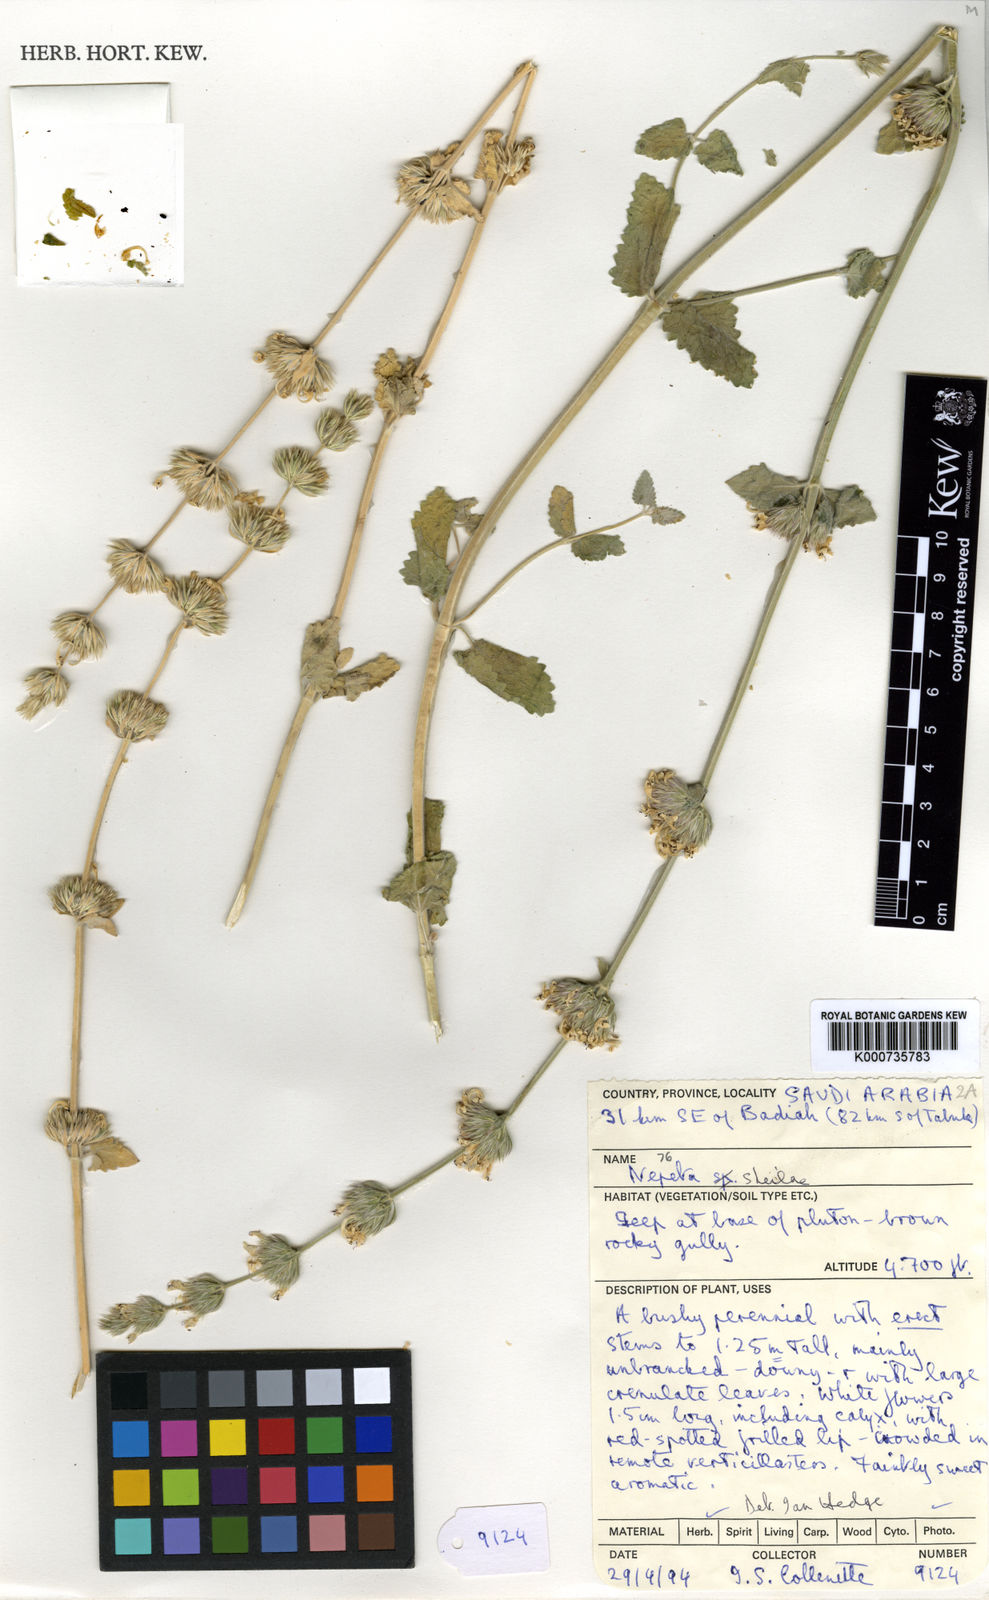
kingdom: Plantae
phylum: Tracheophyta
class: Magnoliopsida
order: Lamiales
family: Lamiaceae
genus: Nepeta
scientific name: Nepeta sheilae
